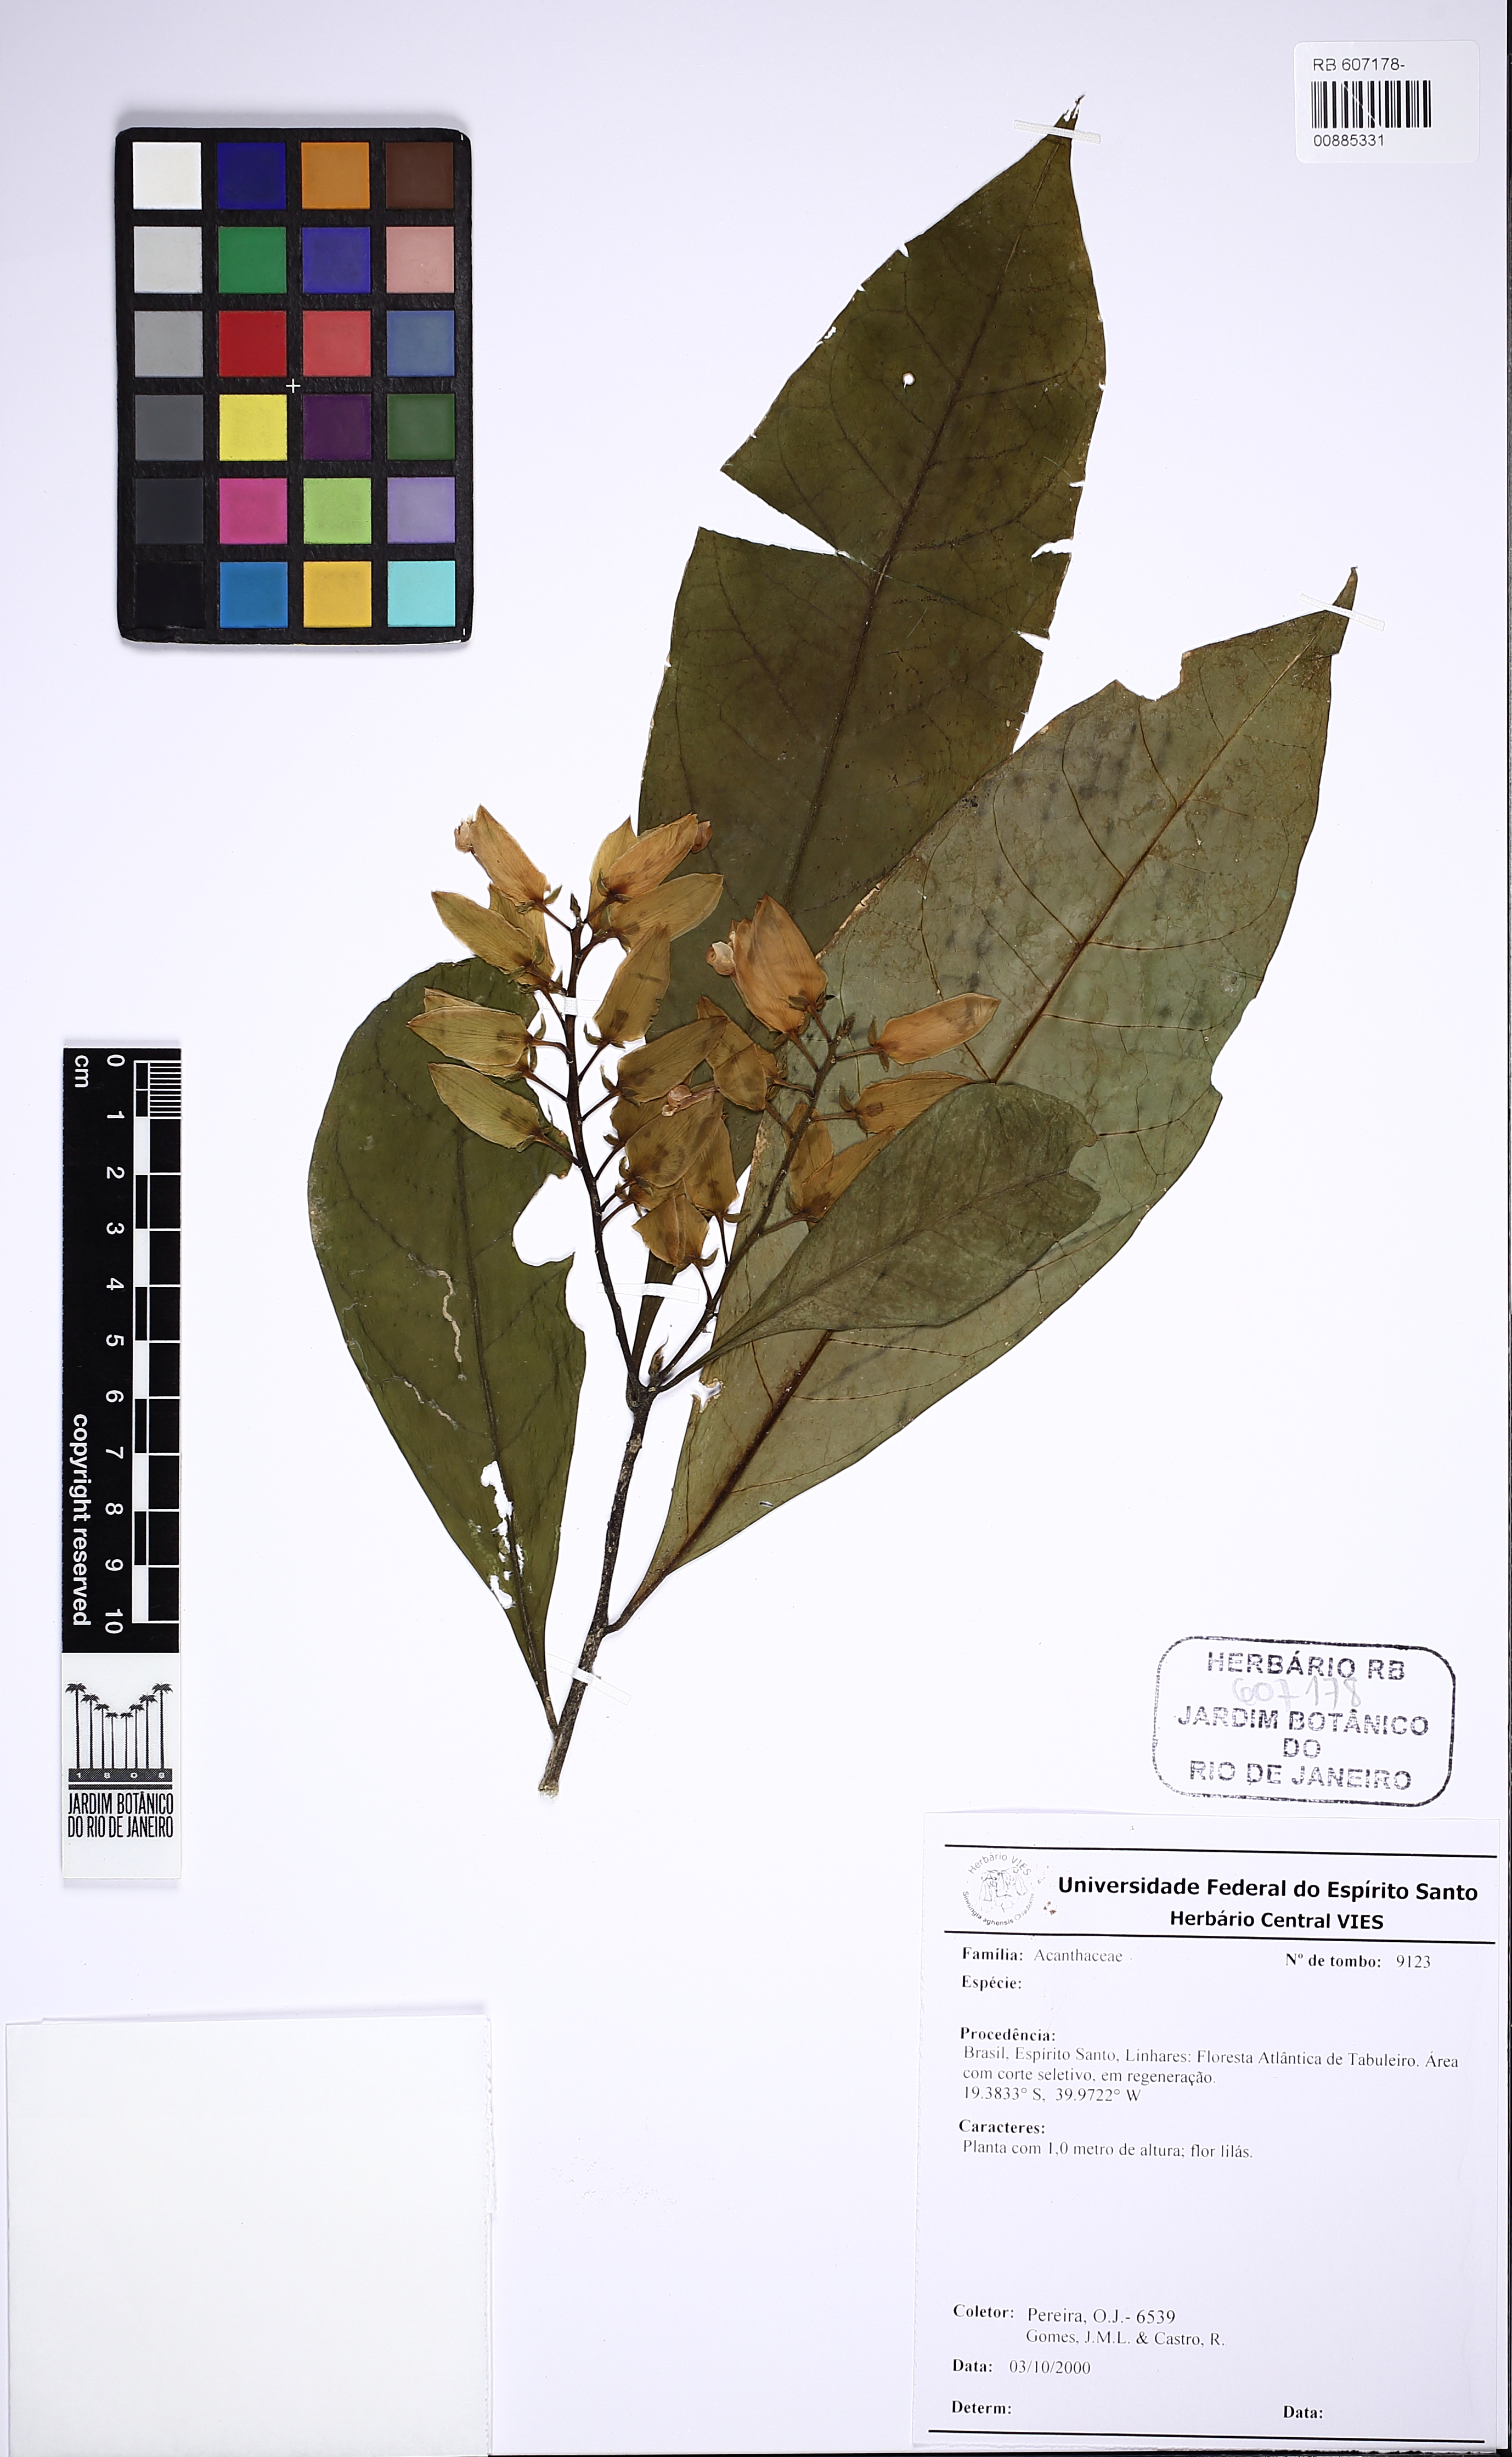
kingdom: Plantae
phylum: Tracheophyta
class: Magnoliopsida
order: Fabales
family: Polygalaceae
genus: Caamembeca
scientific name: Caamembeca
